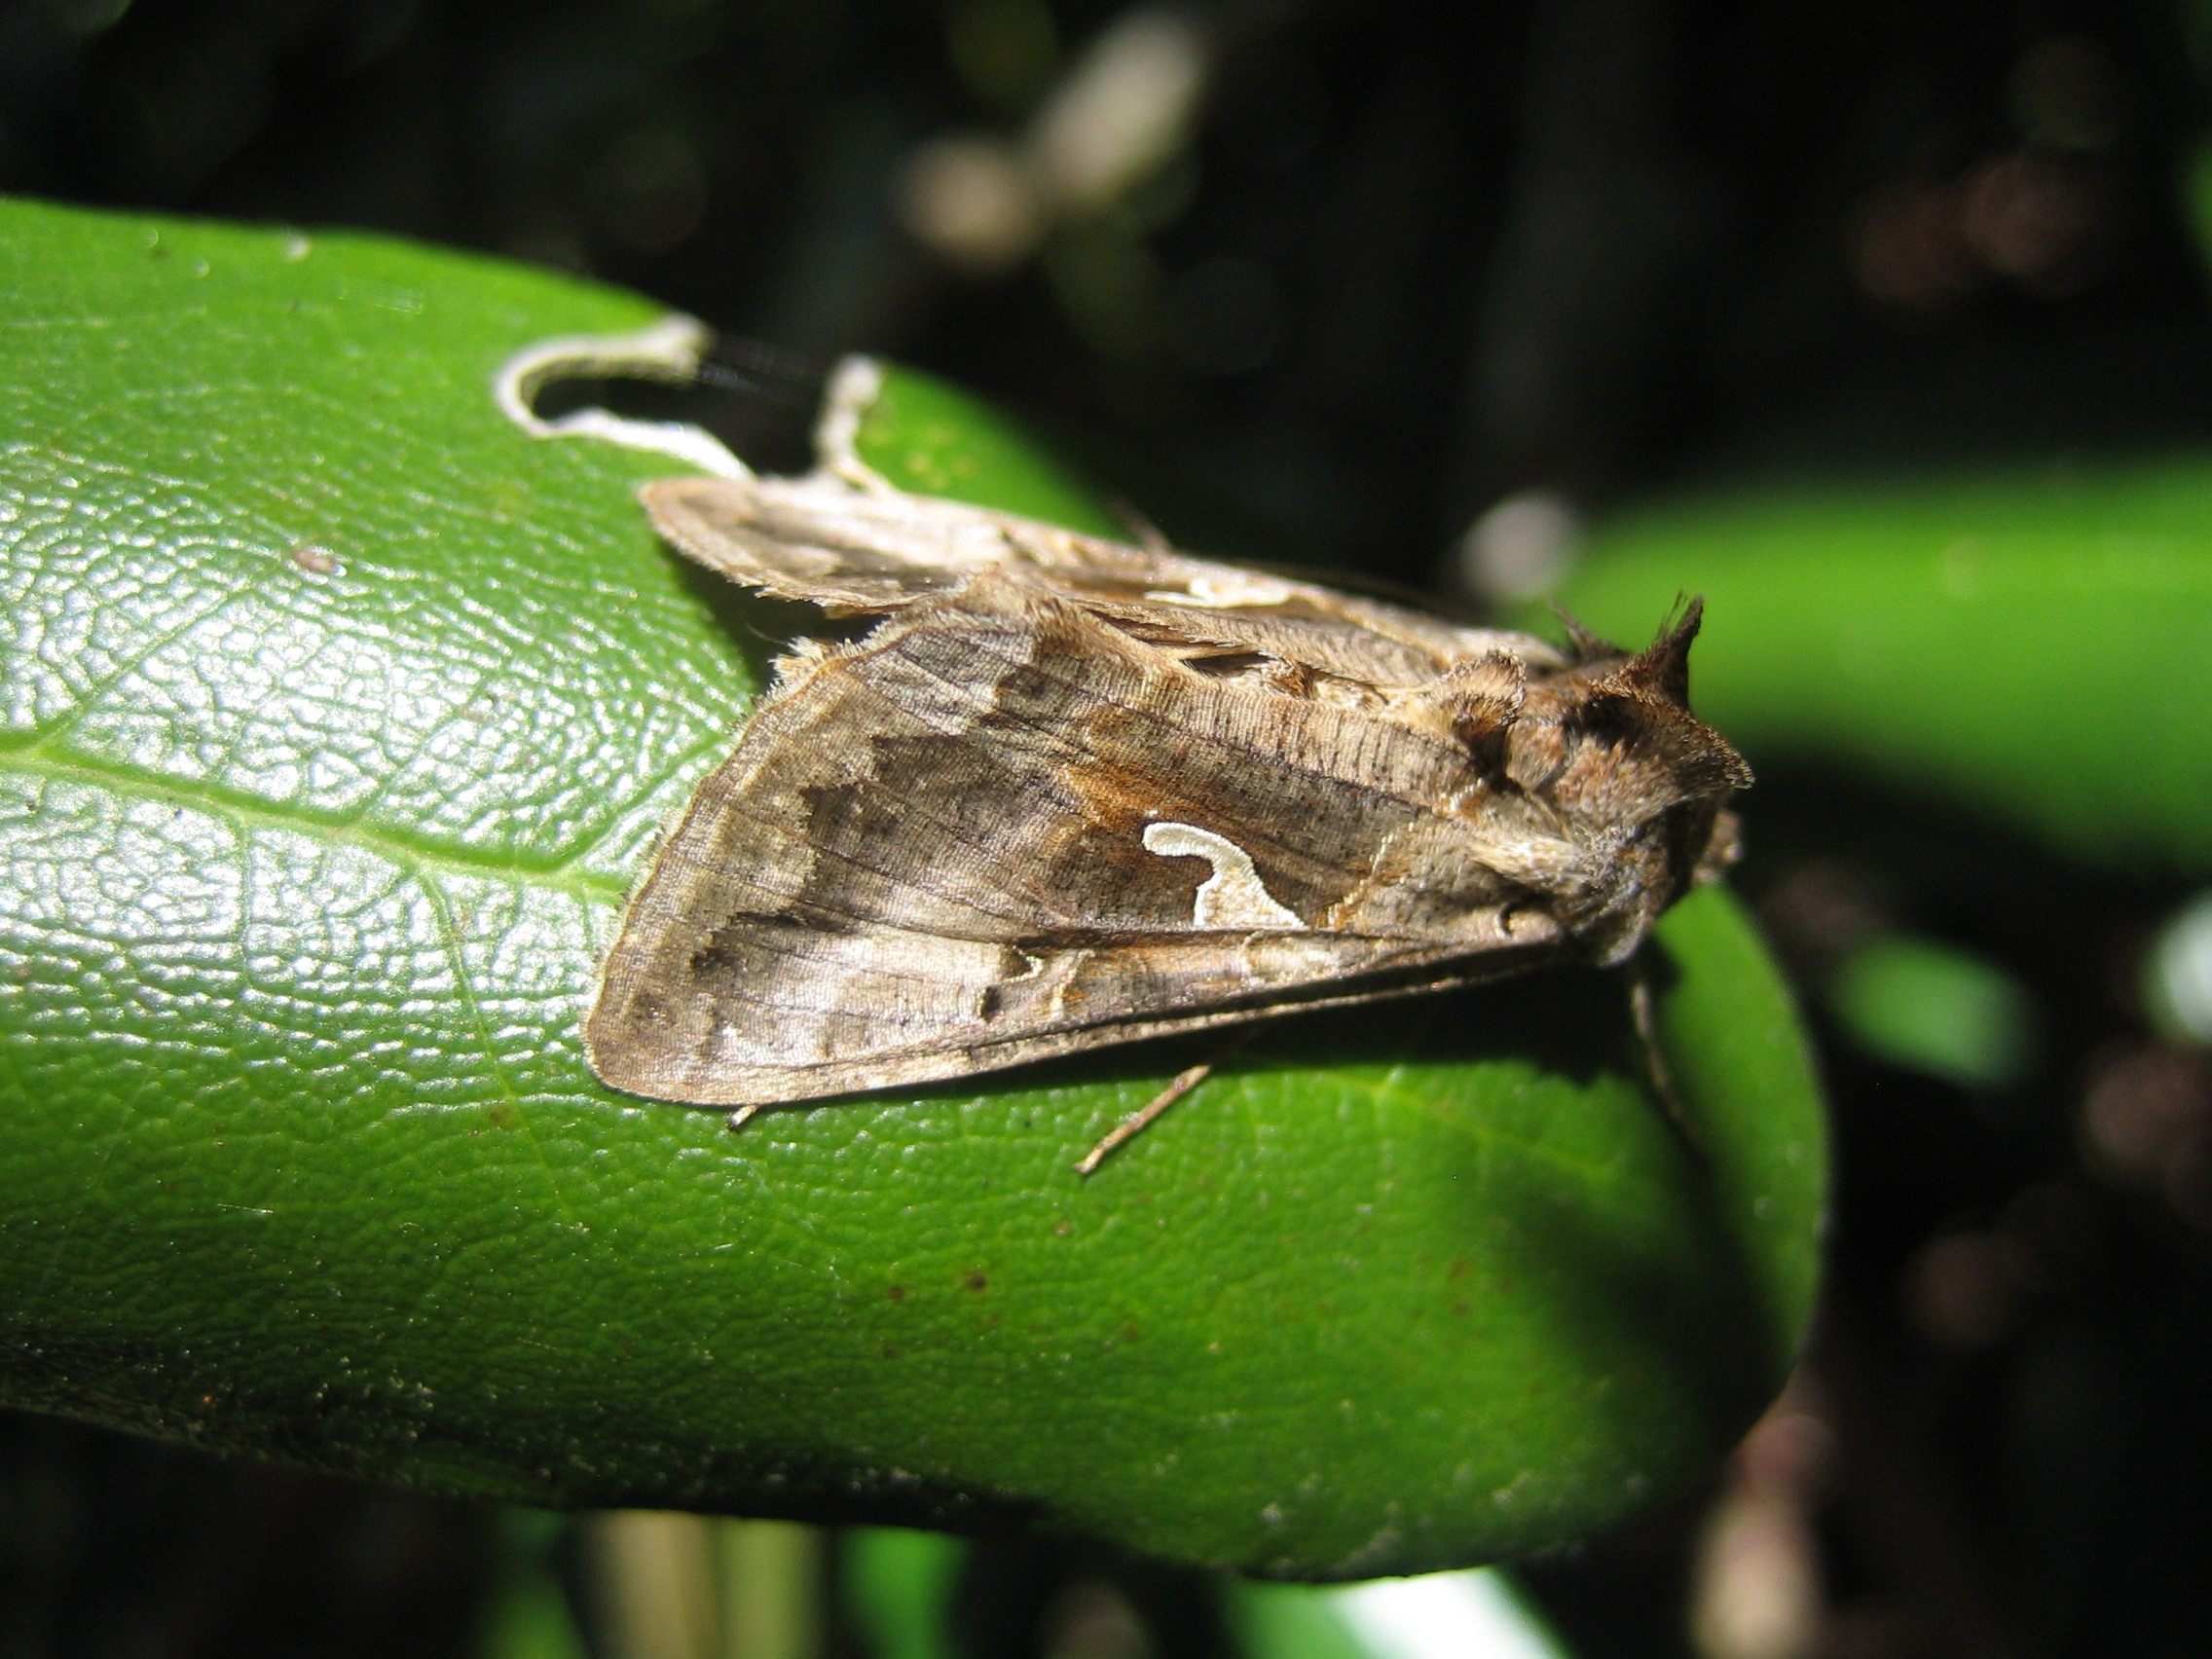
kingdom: Animalia
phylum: Arthropoda
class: Insecta
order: Lepidoptera
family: Noctuidae
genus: Autographa
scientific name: Autographa gamma
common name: Gammaugle
